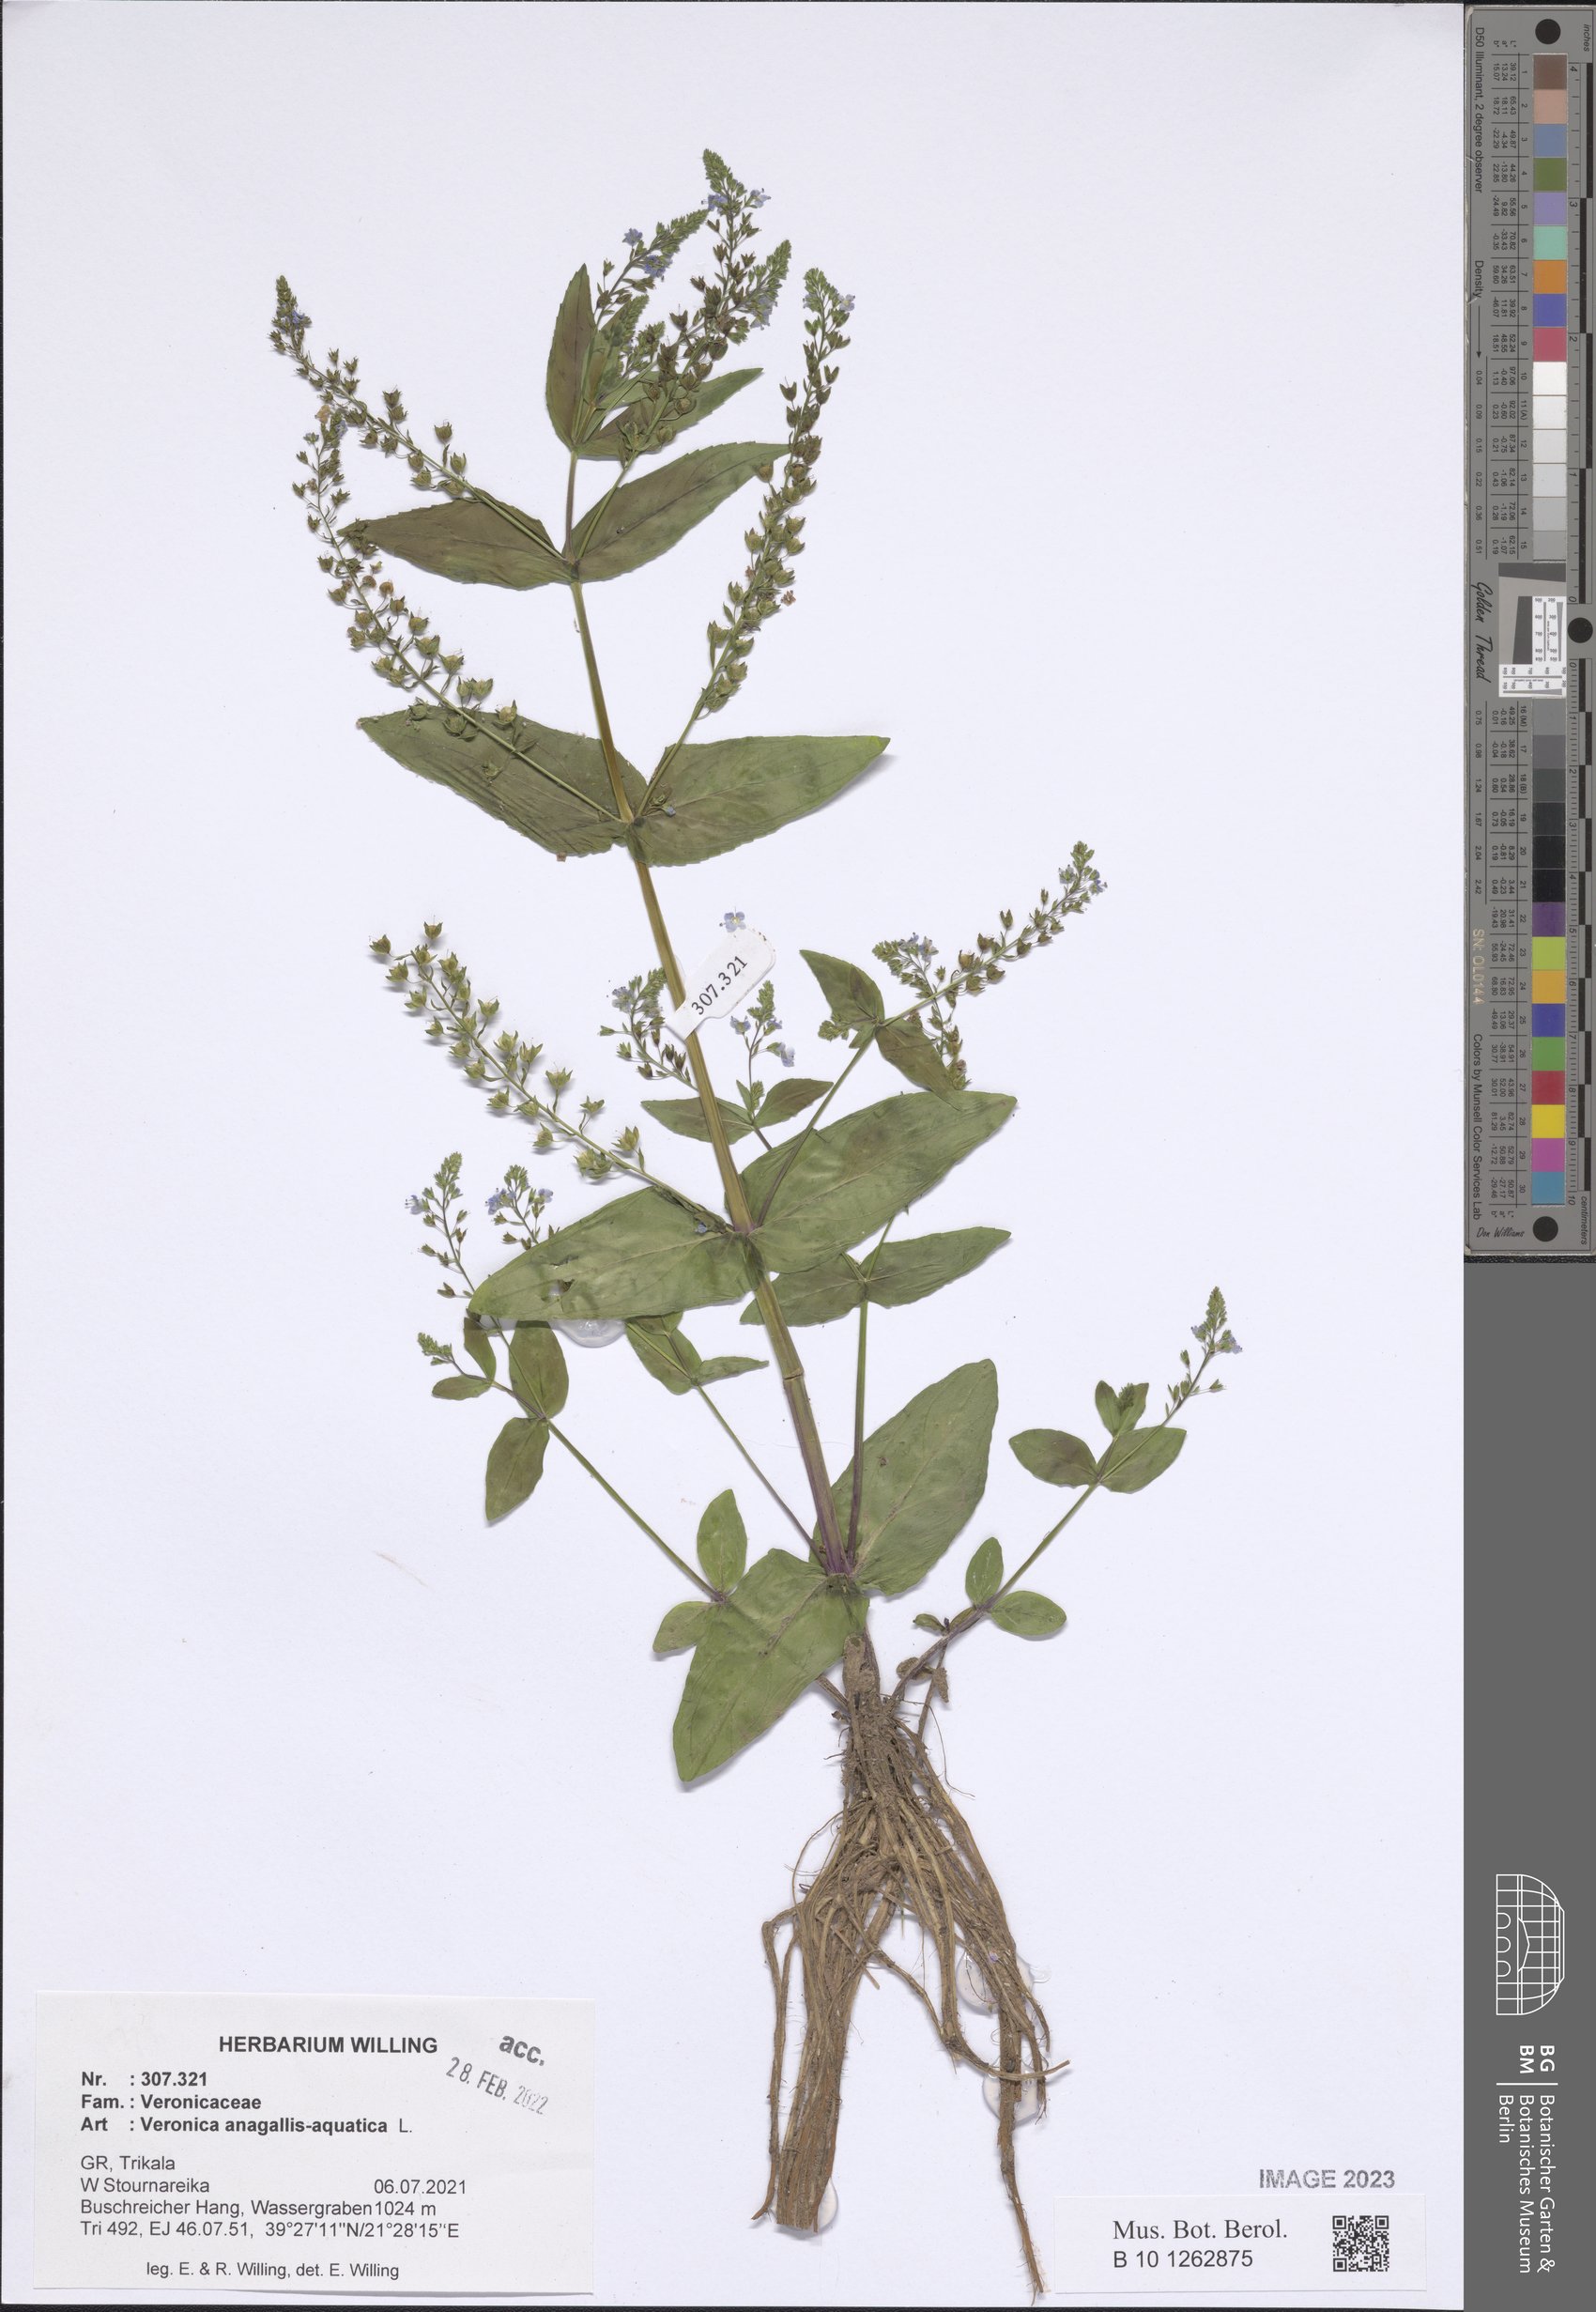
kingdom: Plantae
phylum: Tracheophyta
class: Magnoliopsida
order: Lamiales
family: Plantaginaceae
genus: Veronica
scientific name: Veronica anagallis-aquatica
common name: Water speedwell
